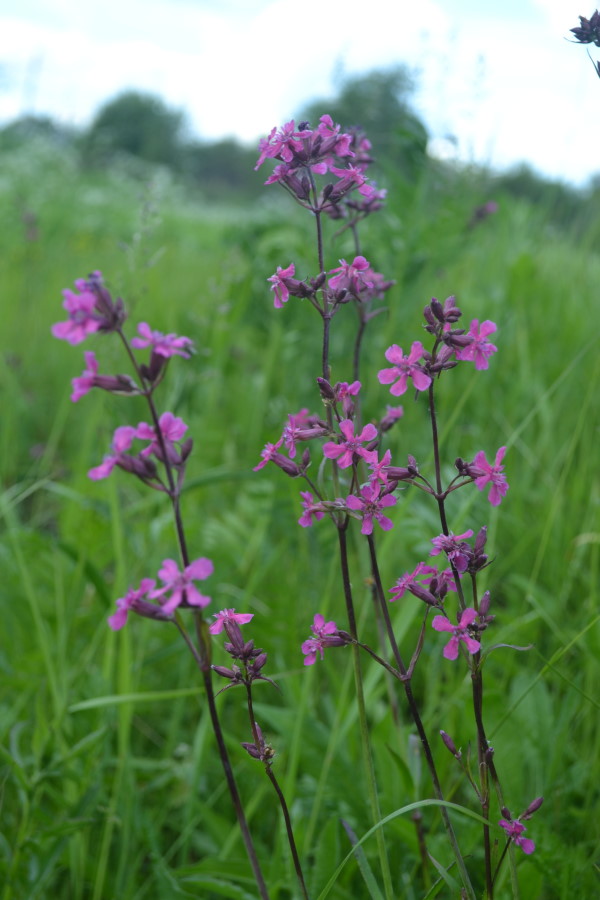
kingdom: Plantae
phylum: Tracheophyta
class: Magnoliopsida
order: Caryophyllales
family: Caryophyllaceae
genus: Viscaria
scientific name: Viscaria vulgaris
